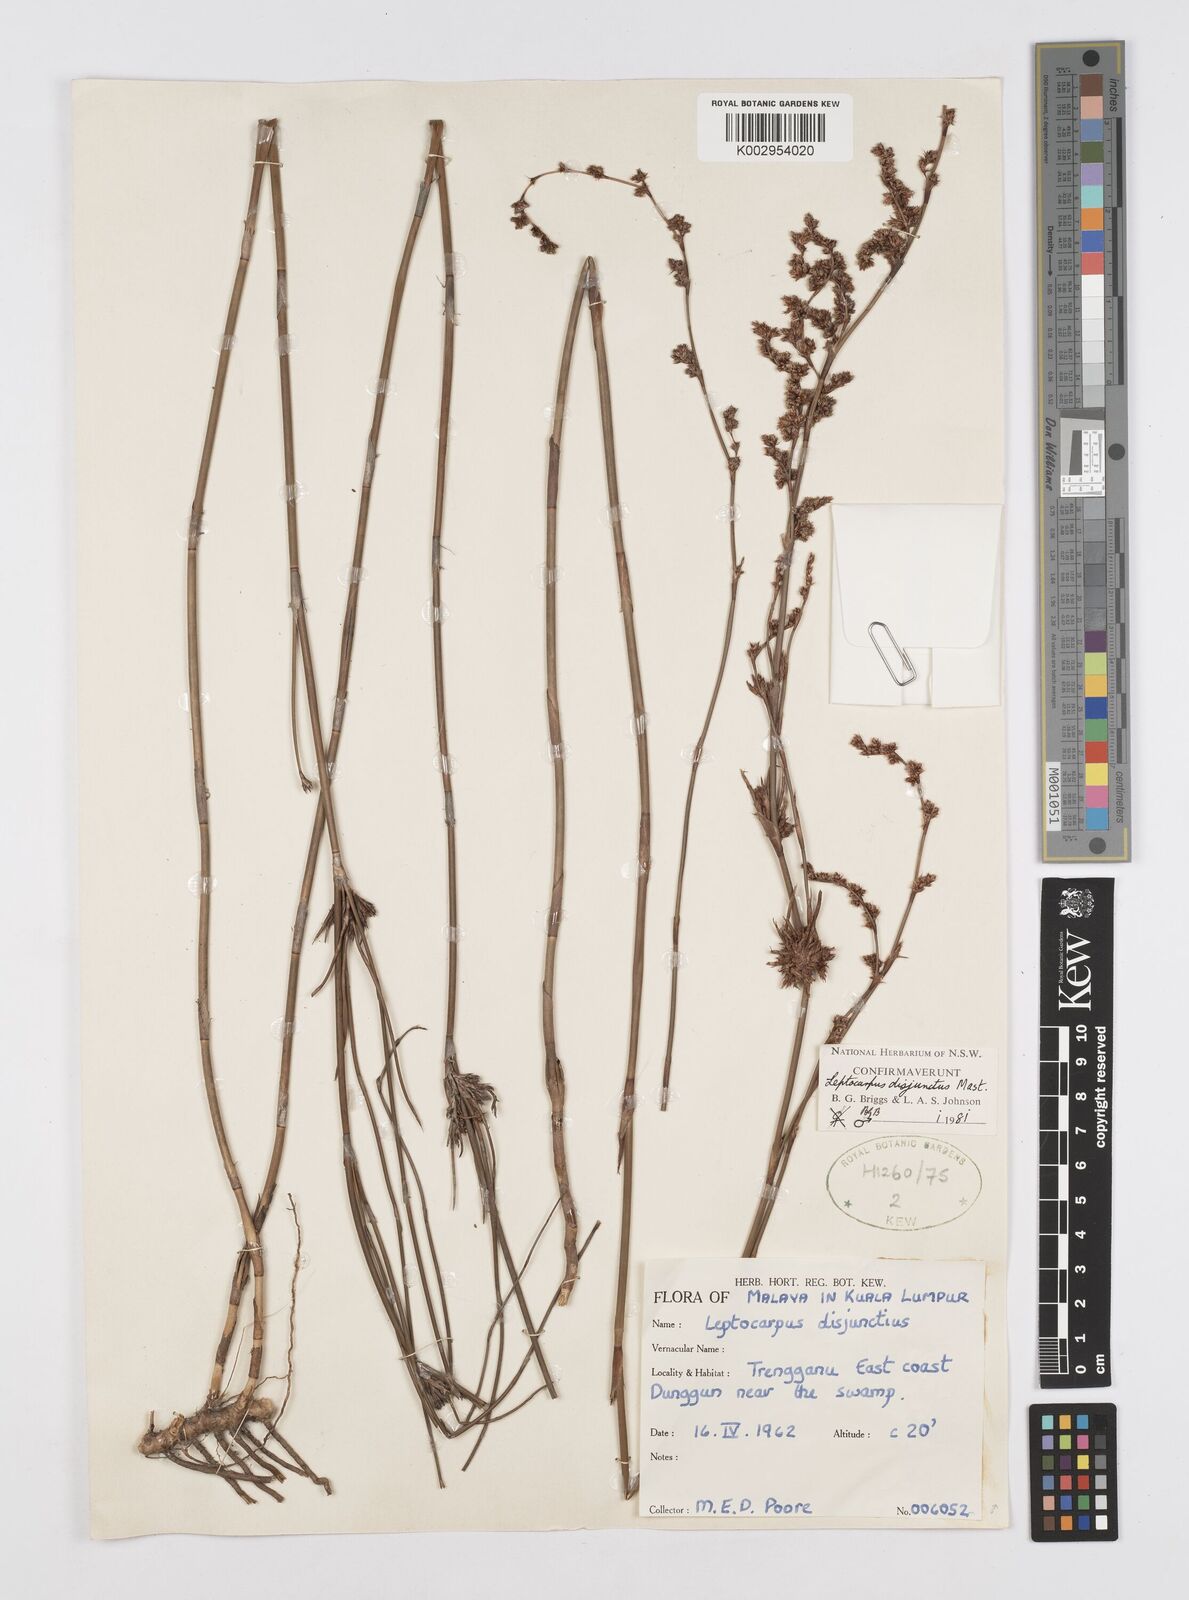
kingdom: Plantae
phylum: Tracheophyta
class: Liliopsida
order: Poales
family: Restionaceae
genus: Dapsilanthus
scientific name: Dapsilanthus disjunctus
